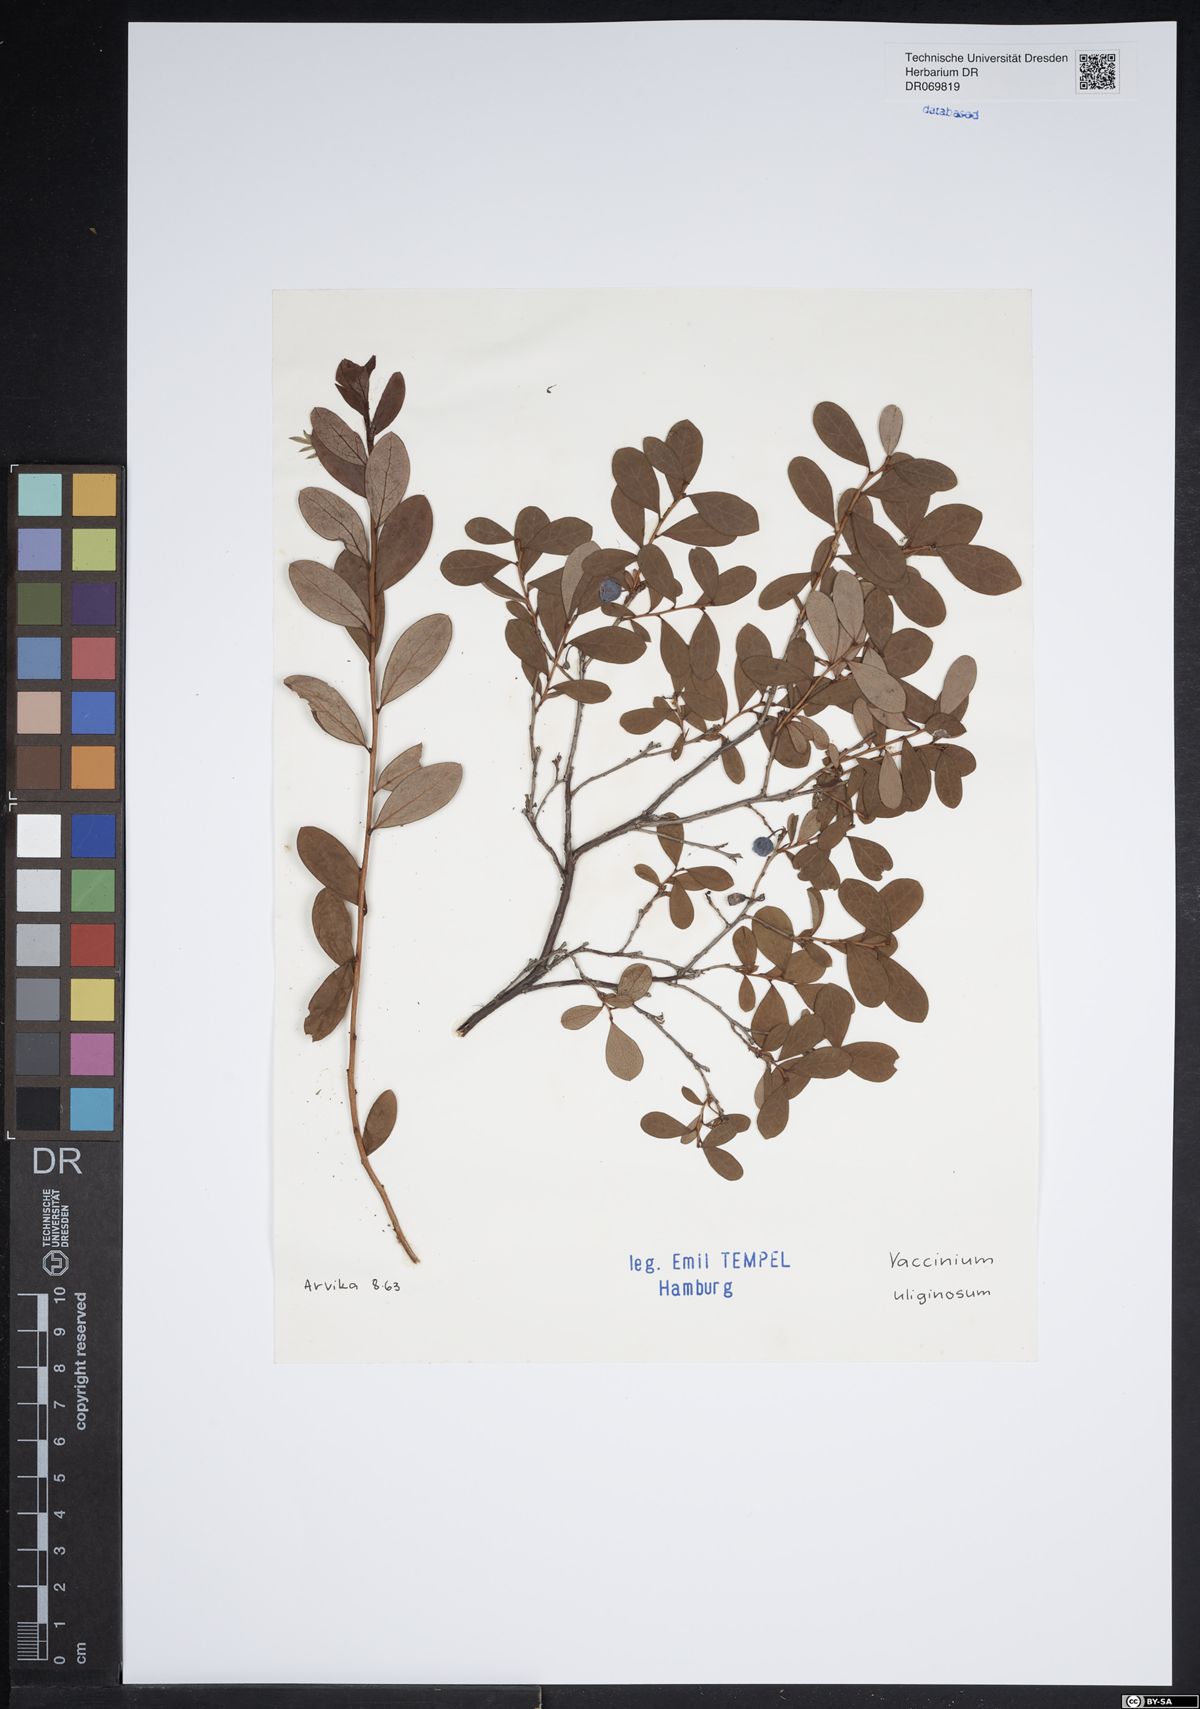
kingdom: Plantae
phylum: Tracheophyta
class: Magnoliopsida
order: Ericales
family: Ericaceae
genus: Vaccinium
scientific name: Vaccinium uliginosum
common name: Bog bilberry
